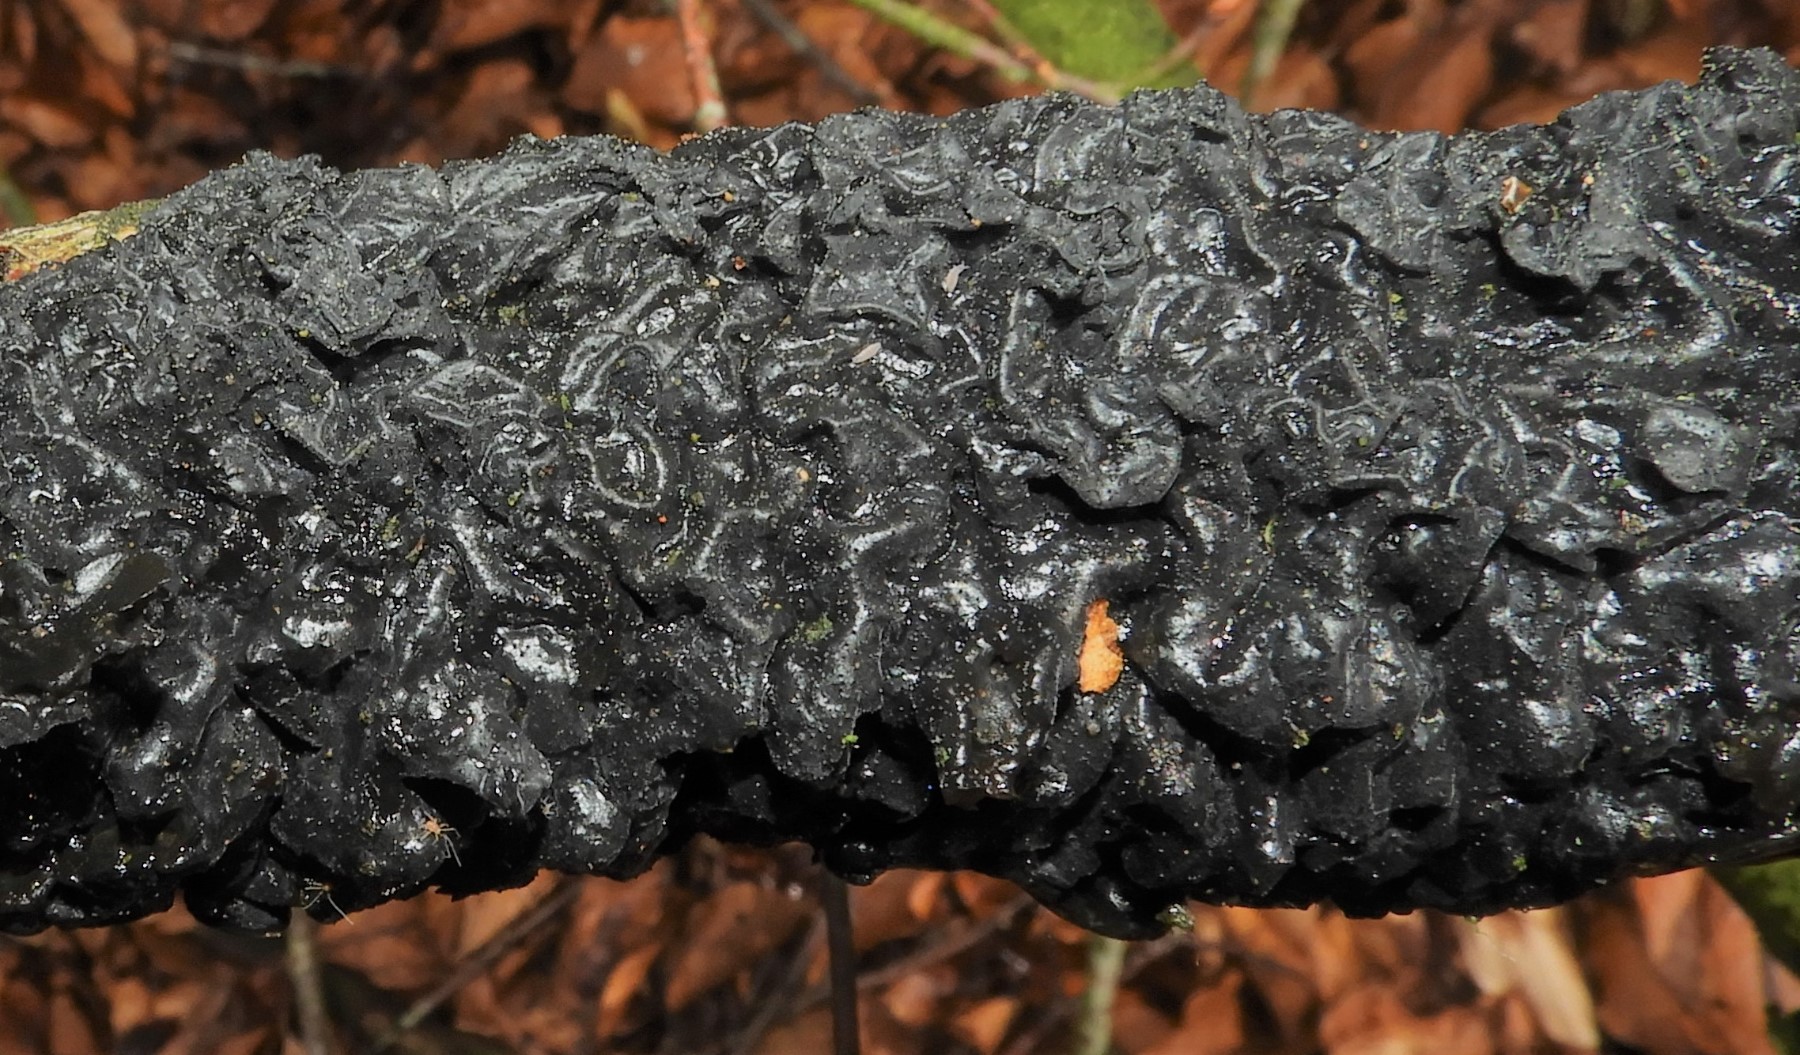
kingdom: Fungi
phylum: Basidiomycota
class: Agaricomycetes
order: Auriculariales
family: Auriculariaceae
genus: Exidia
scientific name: Exidia nigricans
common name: almindelig bævretop
